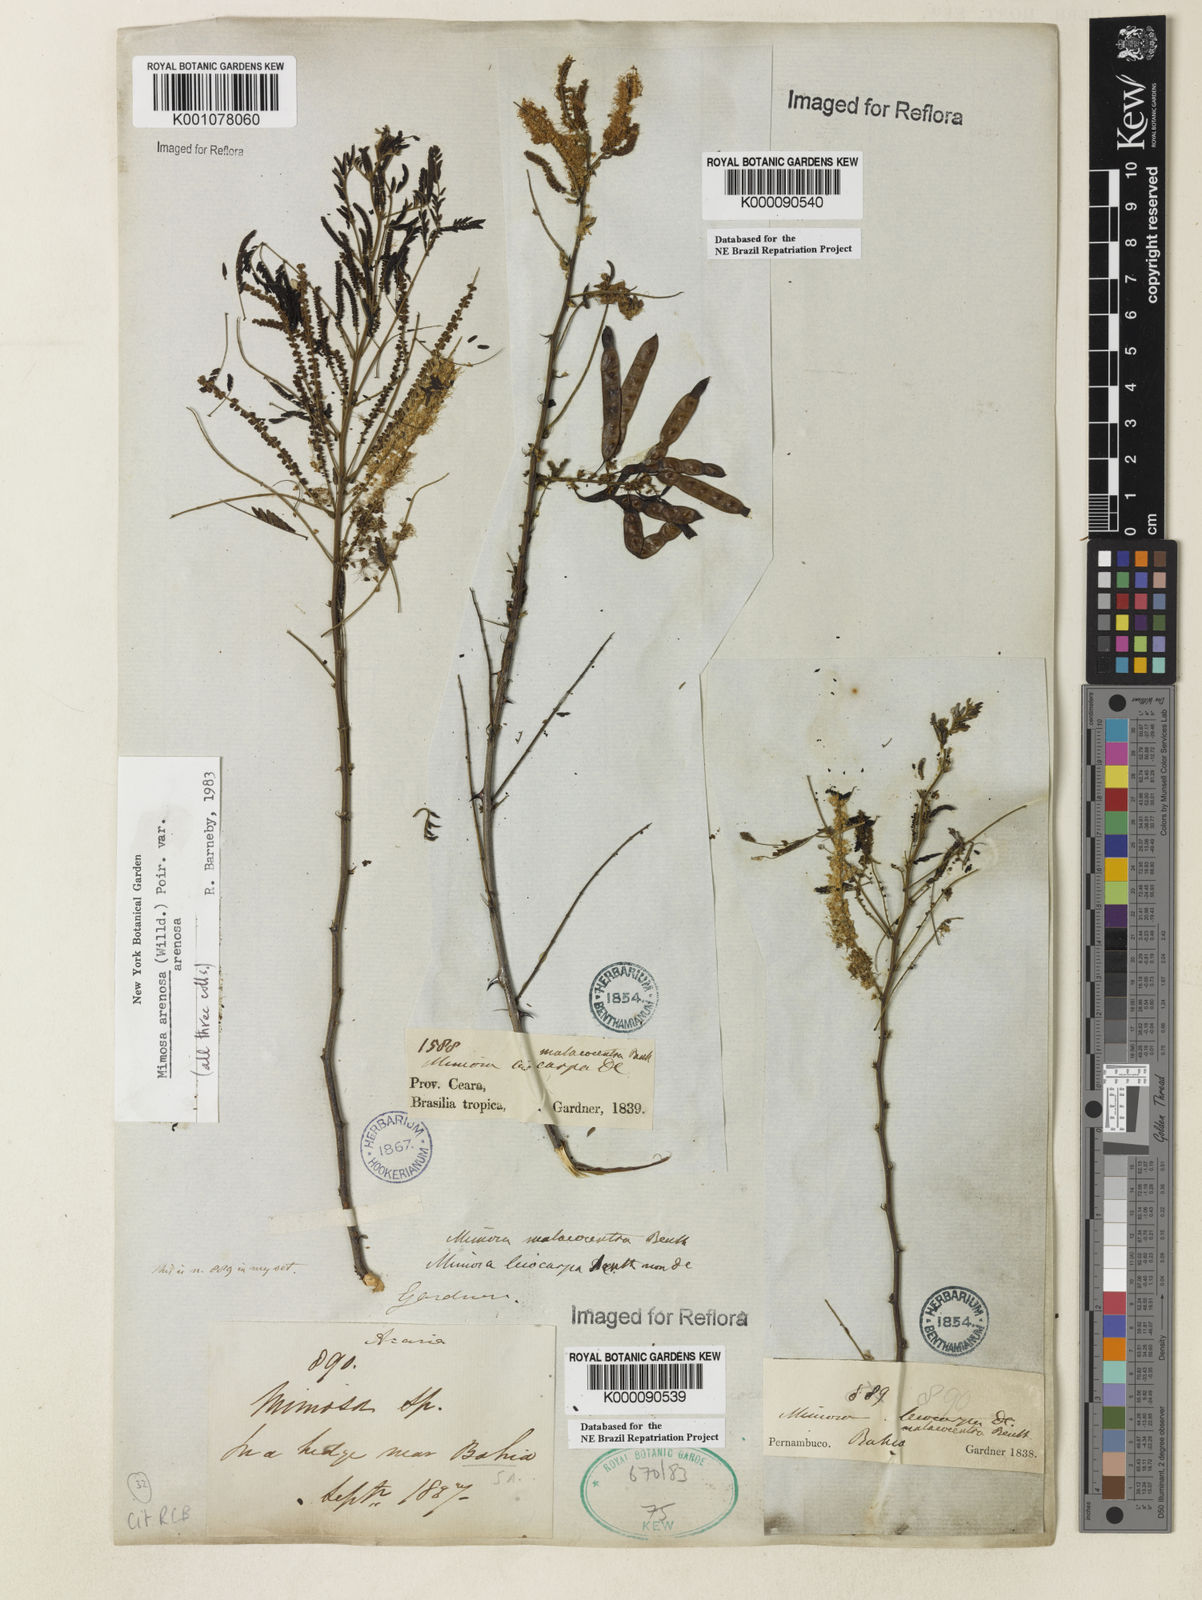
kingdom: Plantae
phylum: Tracheophyta
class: Magnoliopsida
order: Fabales
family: Fabaceae
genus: Mimosa
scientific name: Mimosa arenosa
